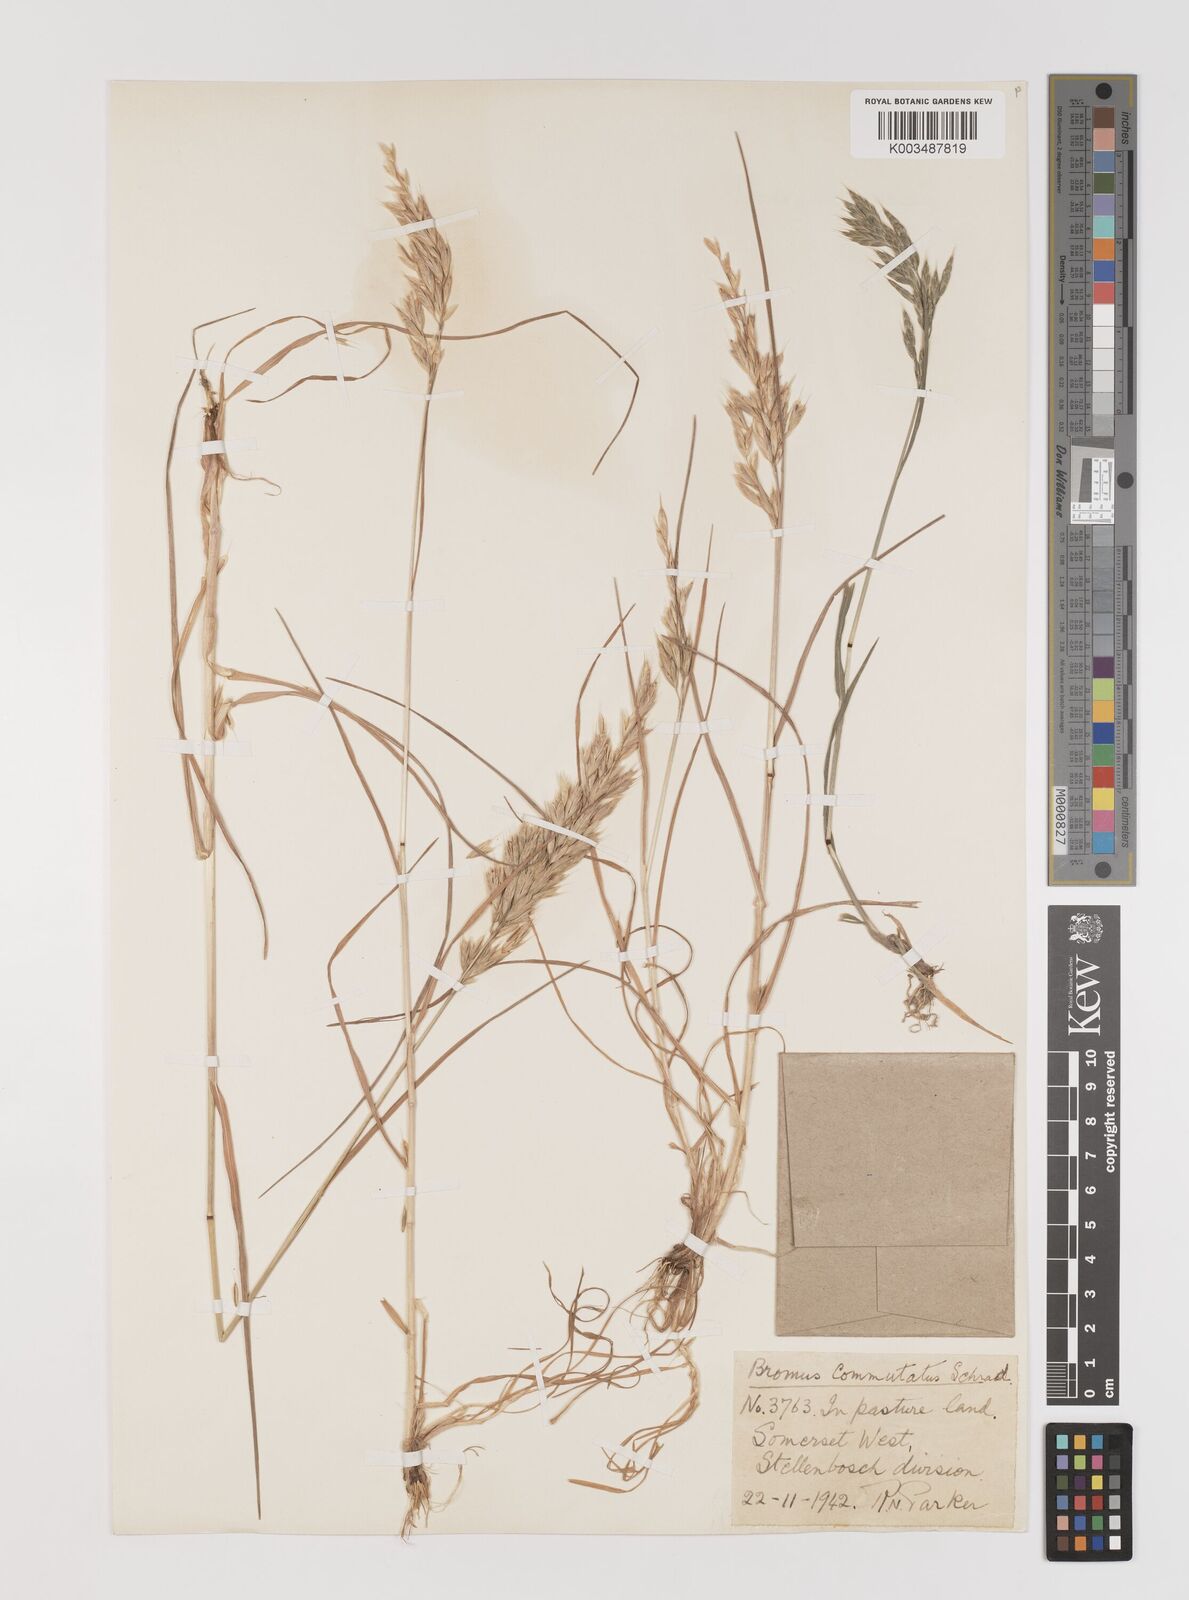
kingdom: Plantae
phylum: Tracheophyta
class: Liliopsida
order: Poales
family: Poaceae
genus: Bromus
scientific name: Bromus
